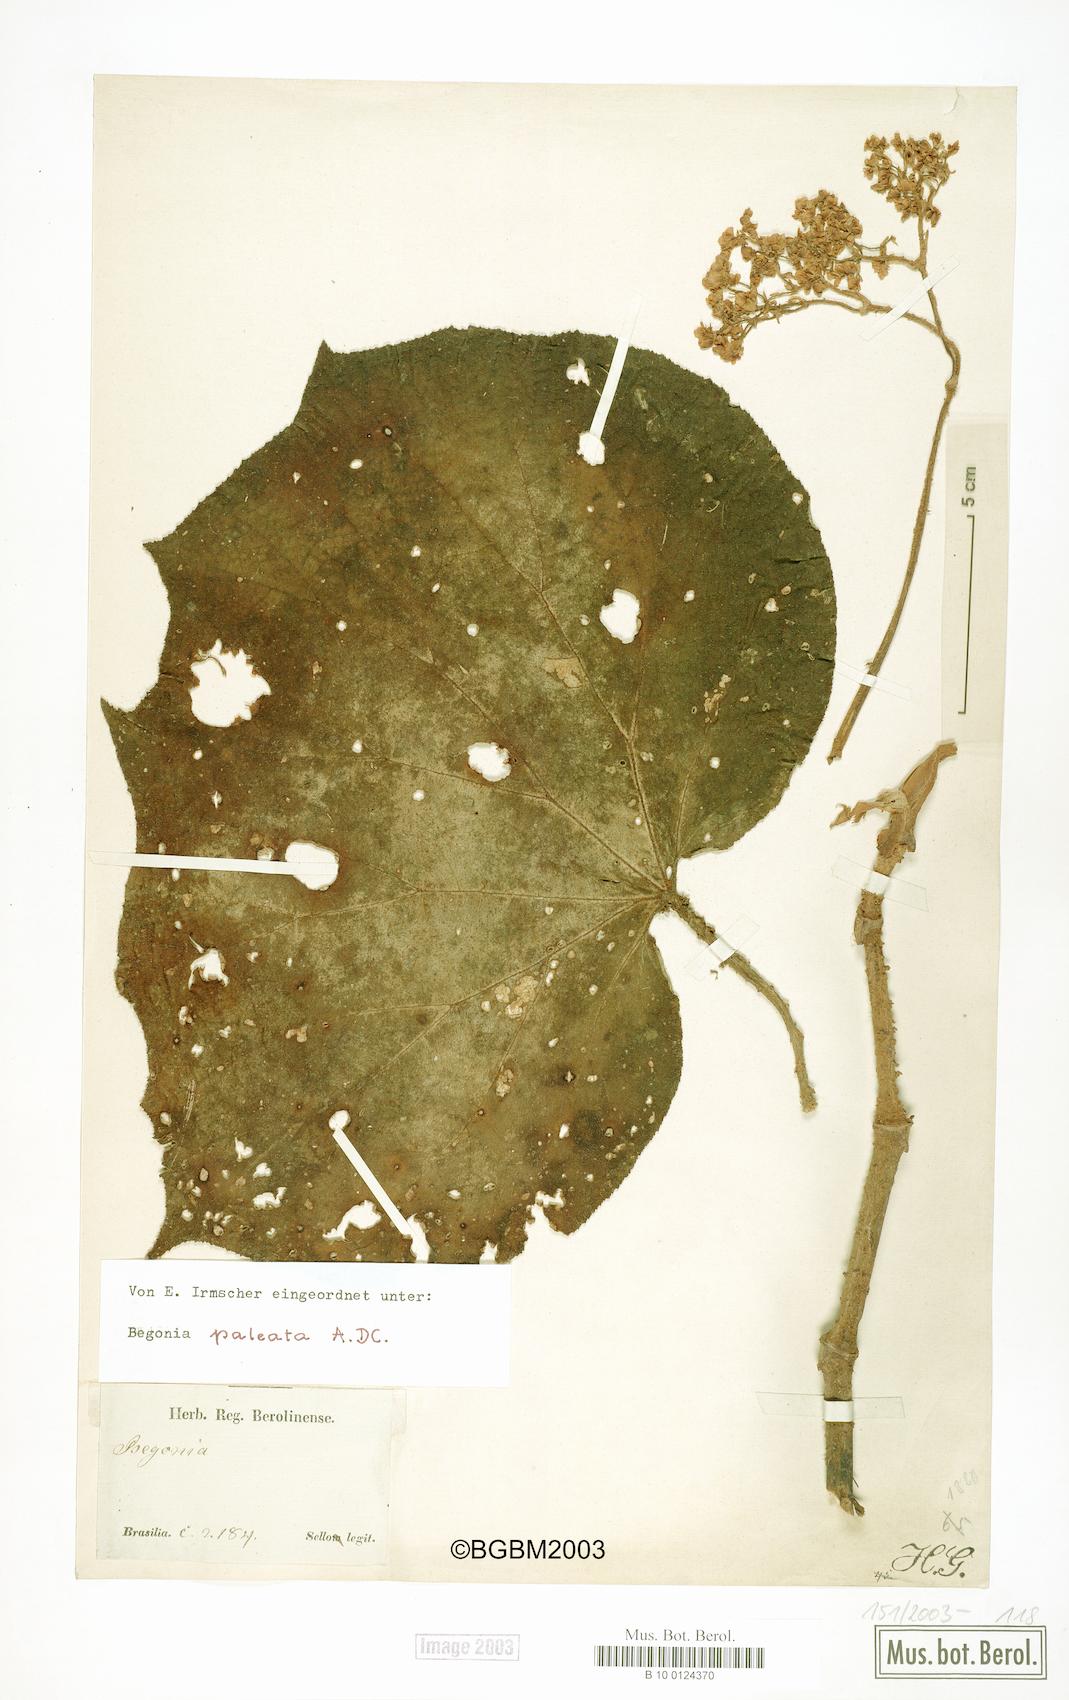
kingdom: Plantae
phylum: Tracheophyta
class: Magnoliopsida
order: Cucurbitales
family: Begoniaceae
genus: Begonia
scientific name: Begonia paleata
